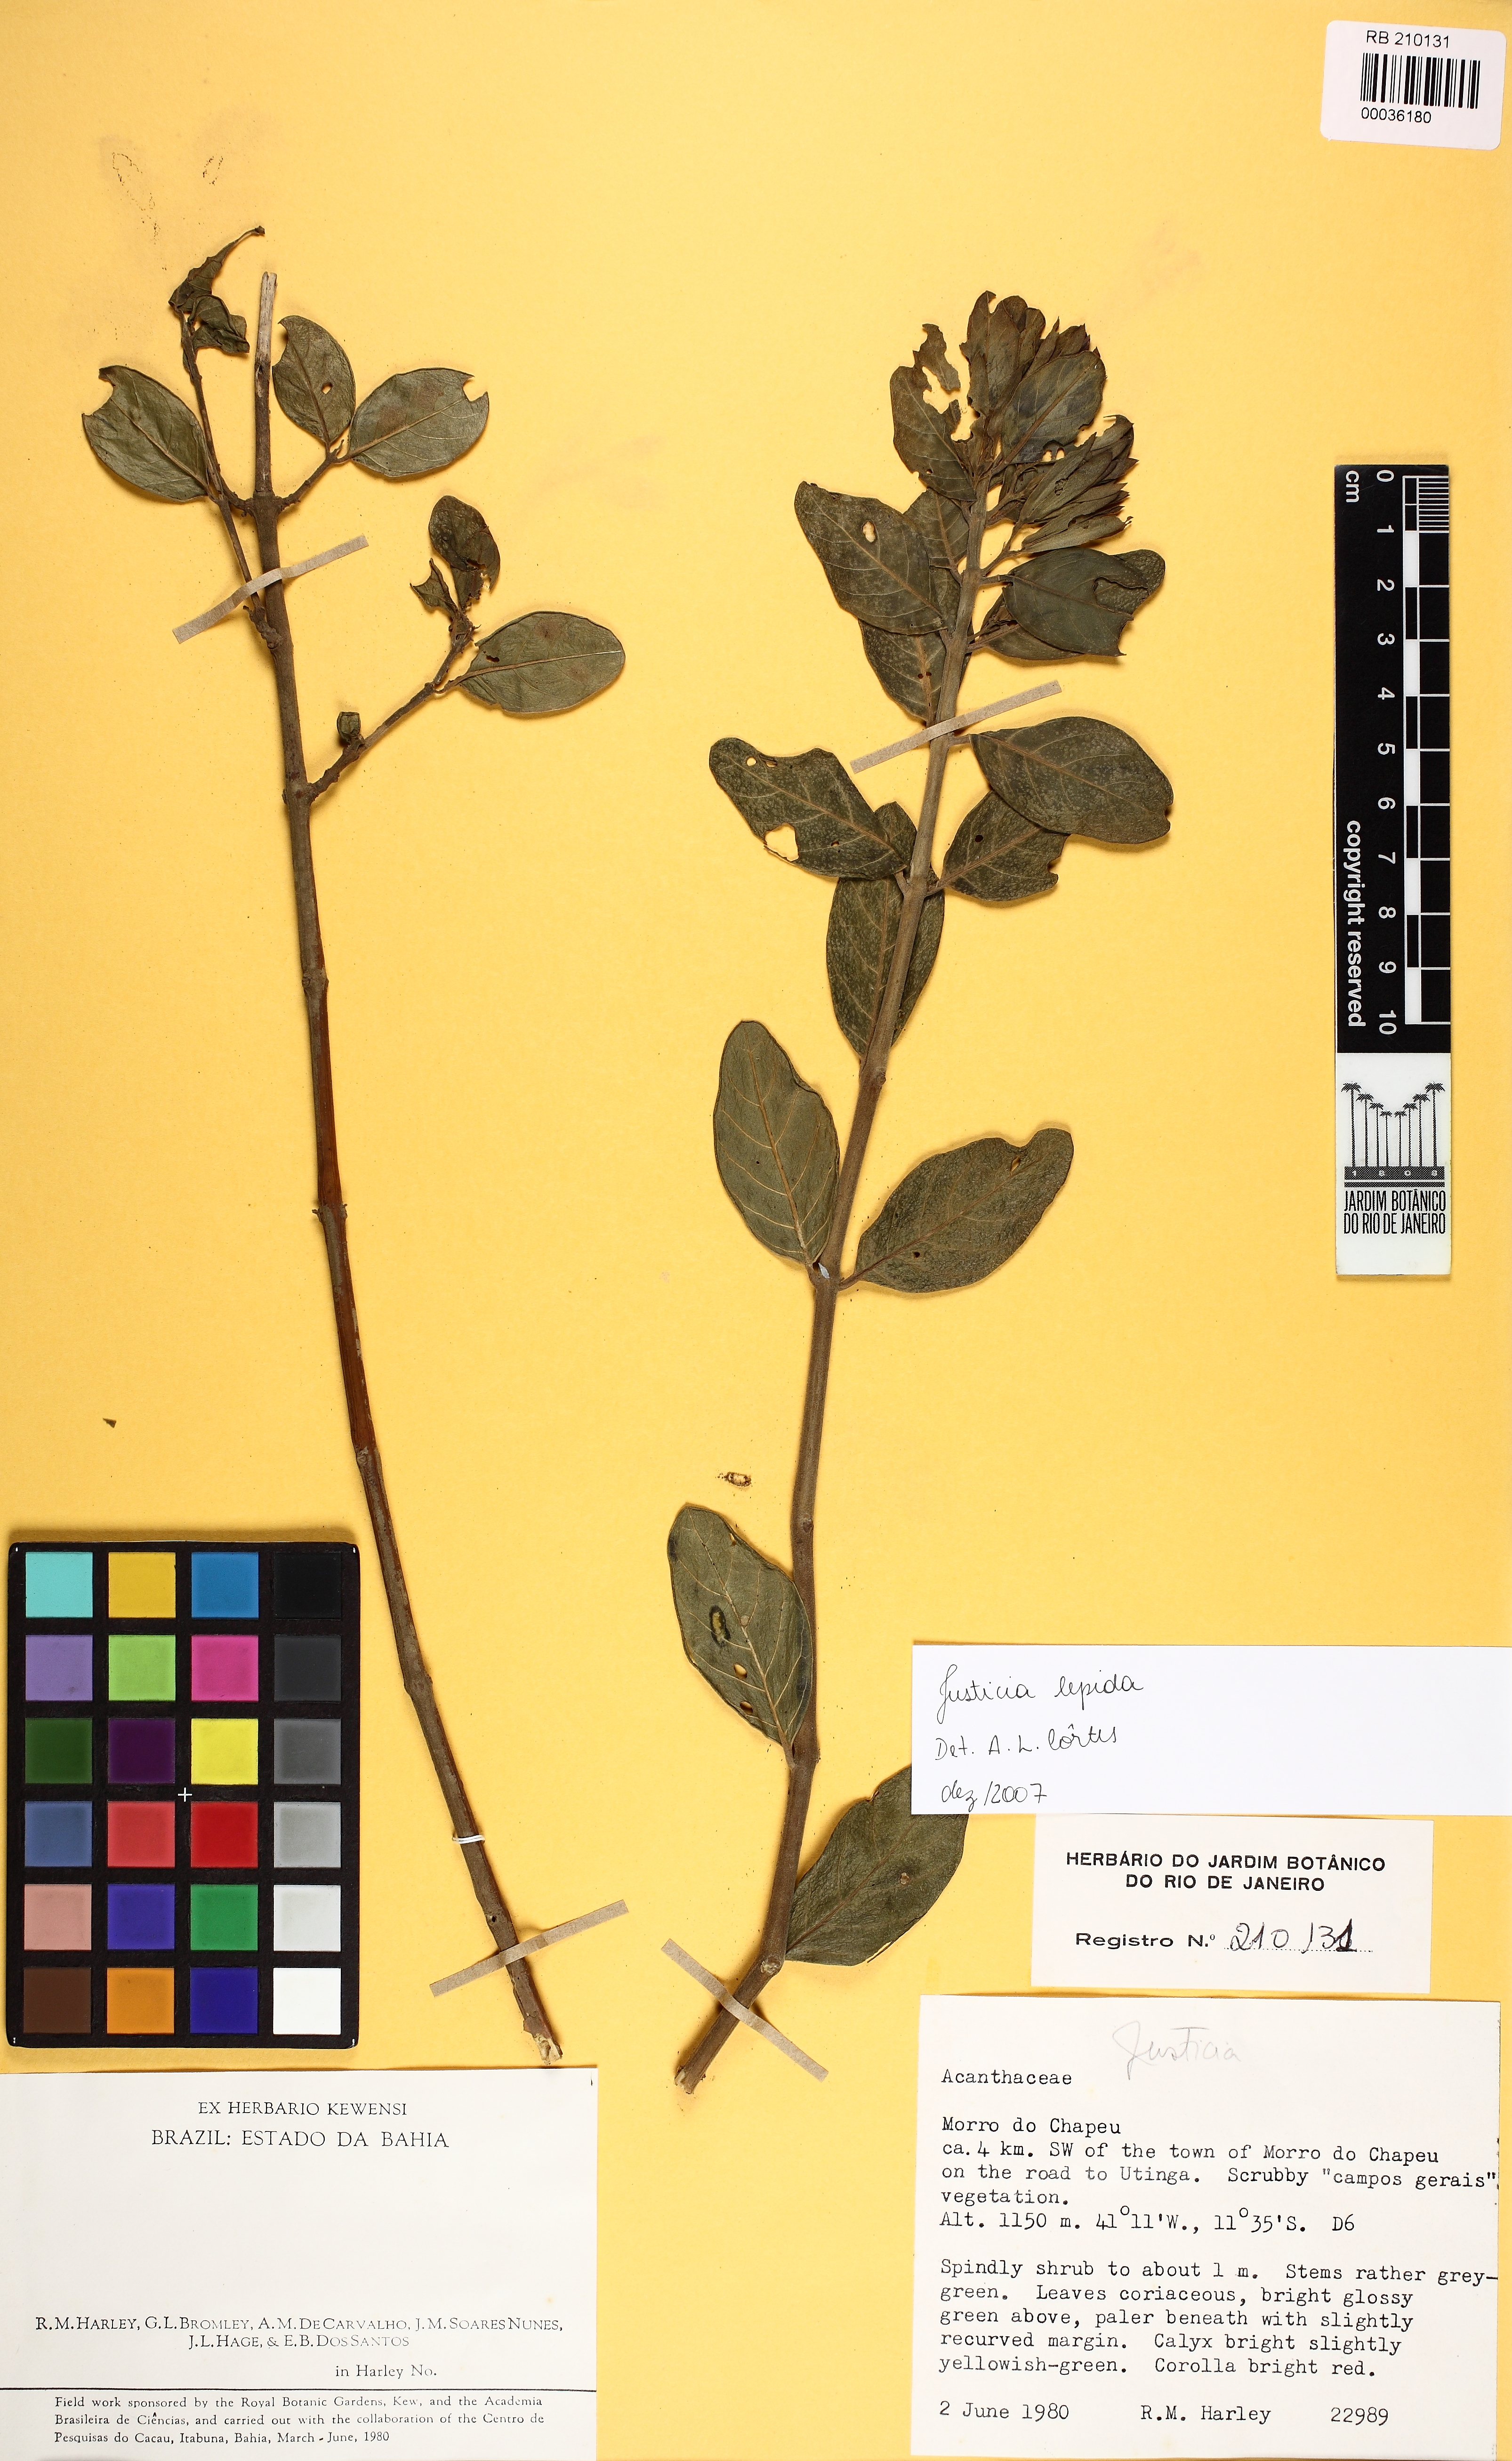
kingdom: Plantae
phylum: Tracheophyta
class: Magnoliopsida
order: Lamiales
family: Acanthaceae
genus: Justicia
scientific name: Justicia
